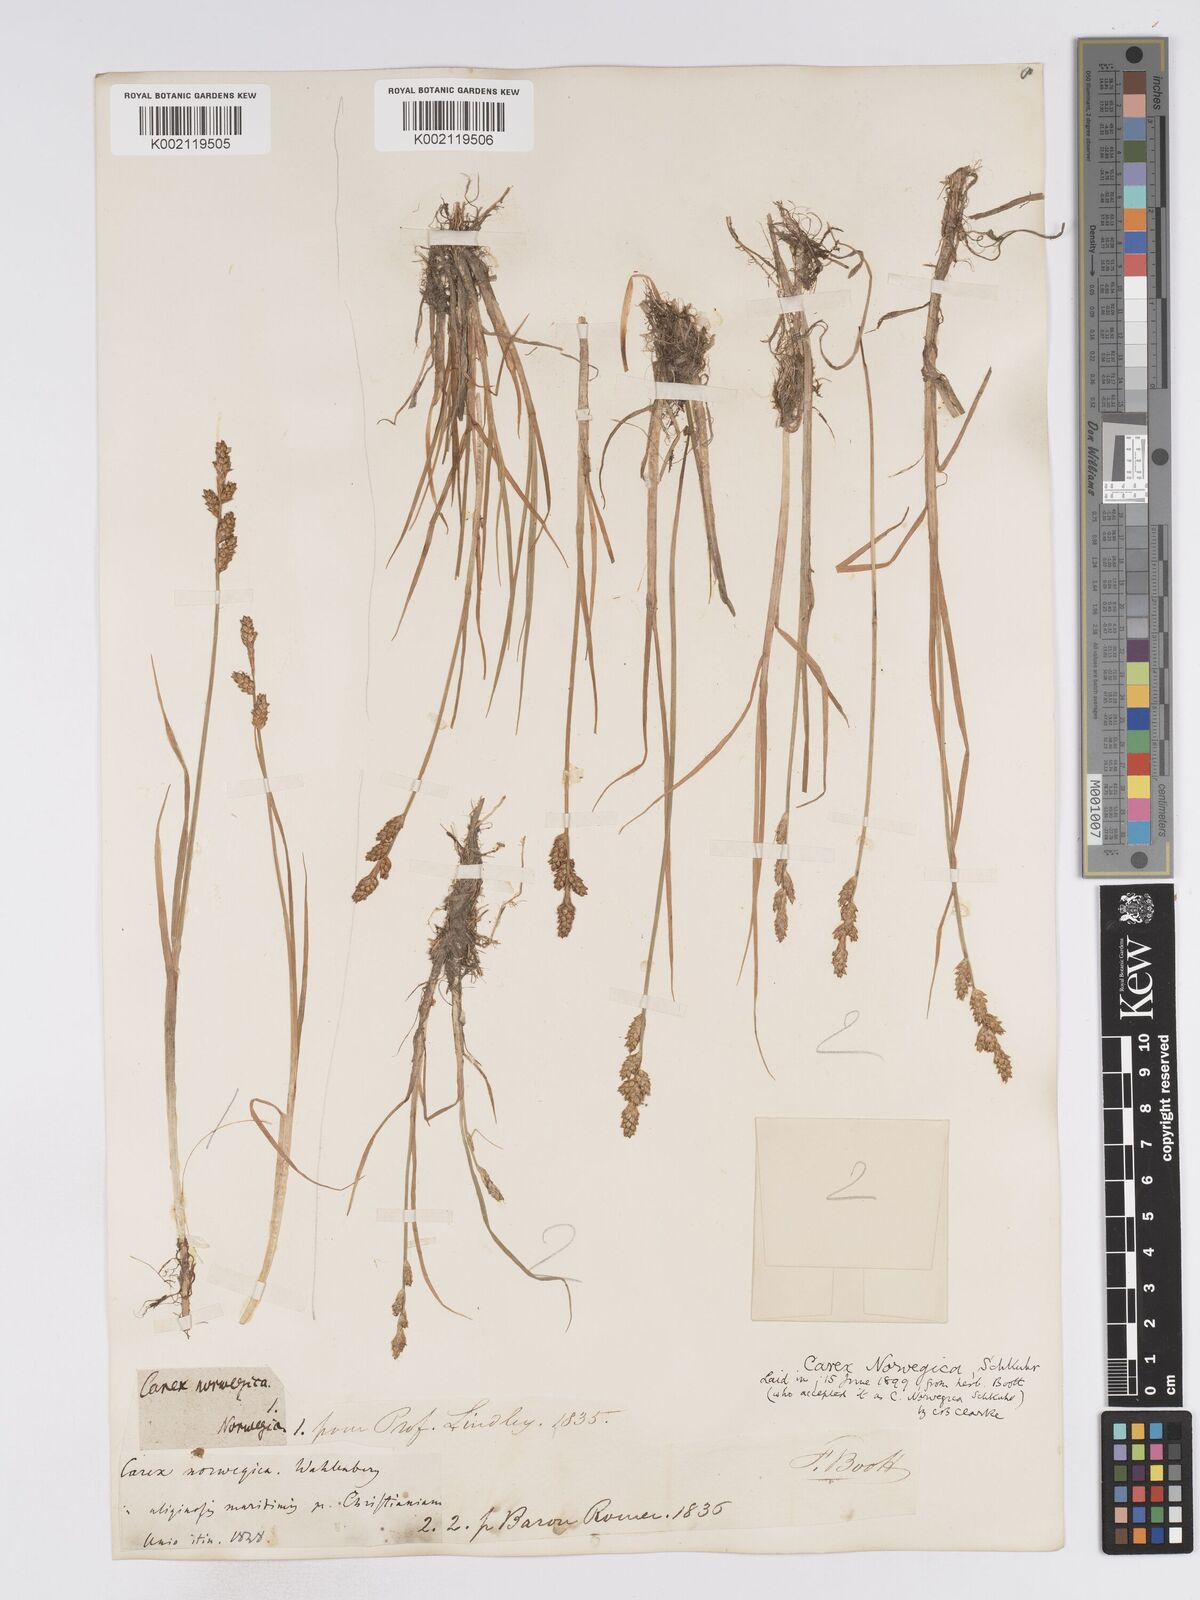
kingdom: Plantae
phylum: Tracheophyta
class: Liliopsida
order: Poales
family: Cyperaceae
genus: Carex
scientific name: Carex mackenziei
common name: Mackenzie's sedge
